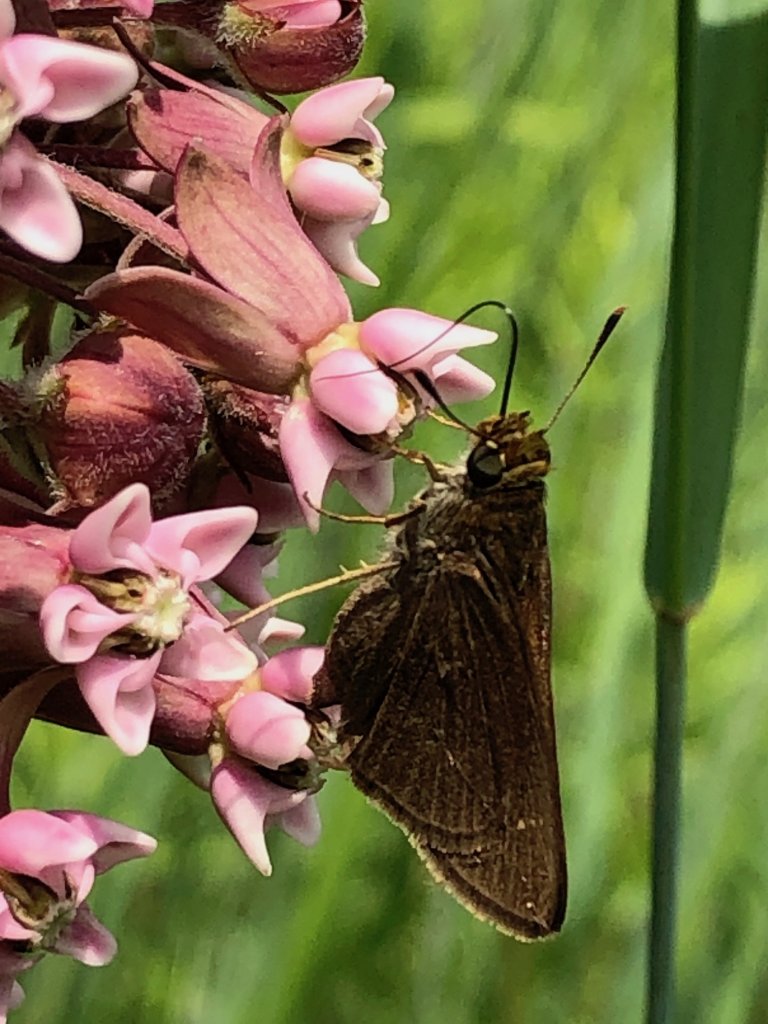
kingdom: Animalia
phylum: Arthropoda
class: Insecta
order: Lepidoptera
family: Hesperiidae
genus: Euphyes
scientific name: Euphyes vestris
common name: Dun Skipper
